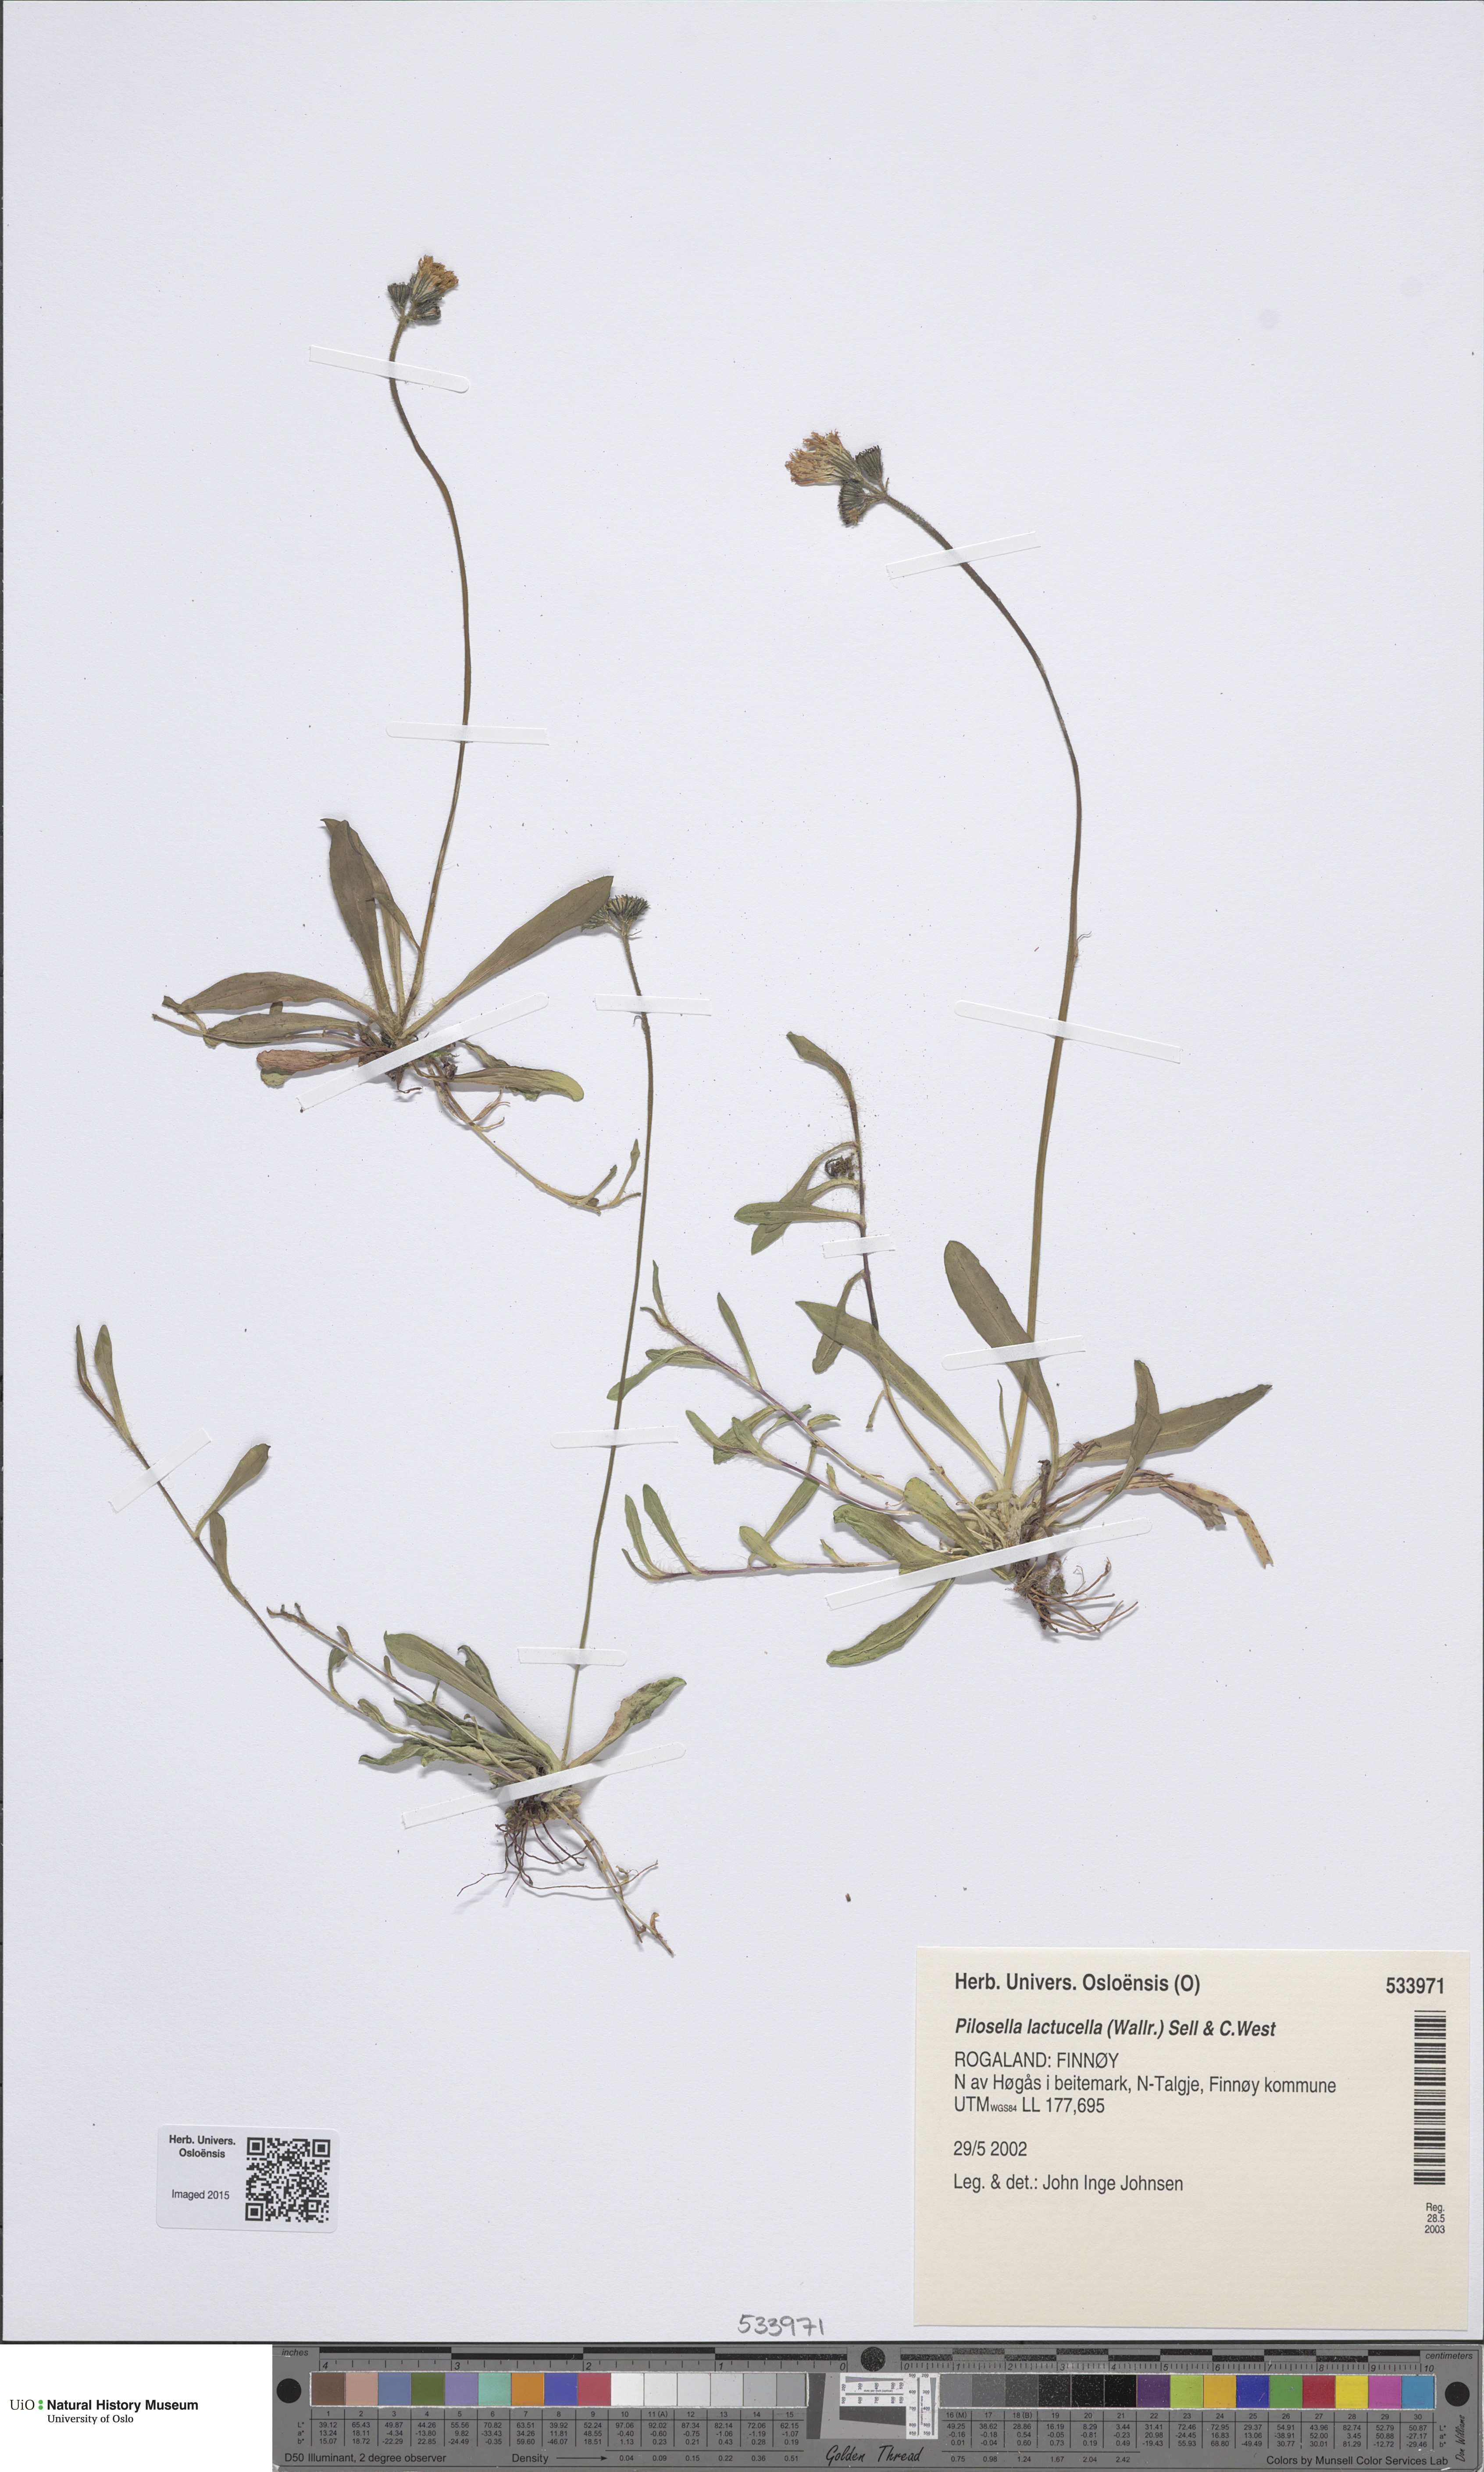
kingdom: Plantae
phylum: Tracheophyta
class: Magnoliopsida
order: Asterales
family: Asteraceae
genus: Pilosella
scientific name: Pilosella lactucella
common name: Glaucous fox-and-cubs
